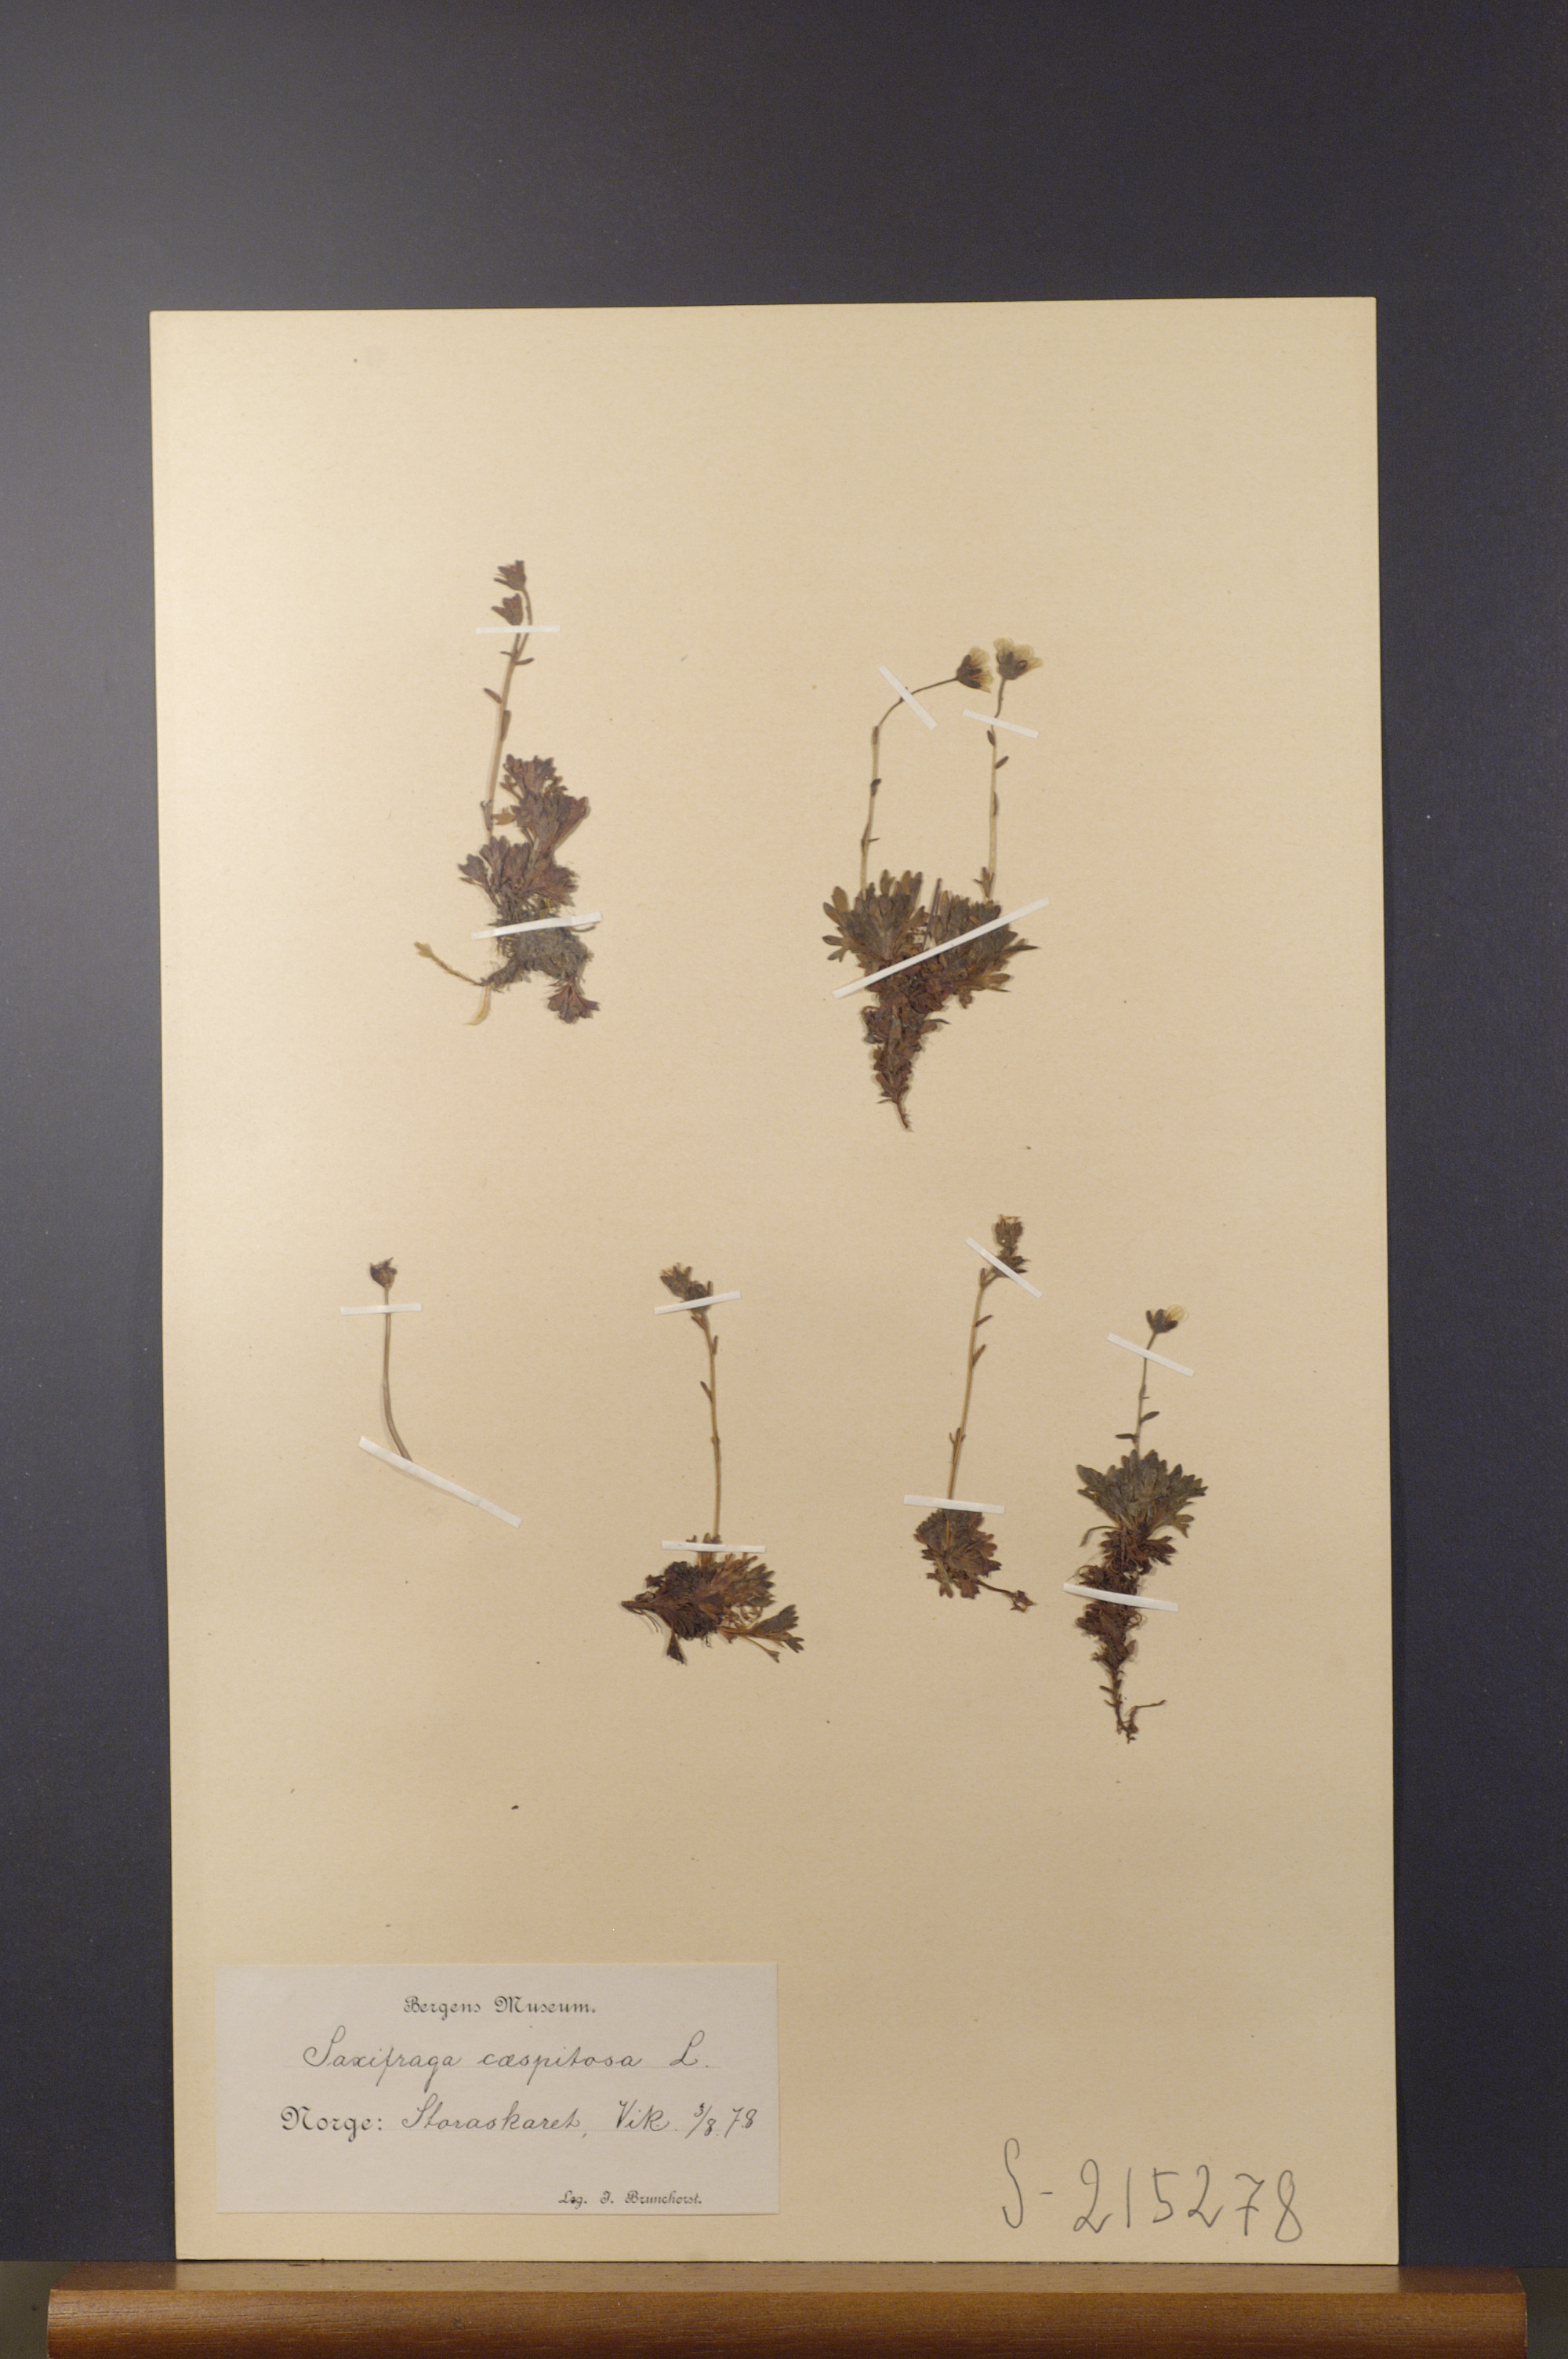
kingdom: Plantae
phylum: Tracheophyta
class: Magnoliopsida
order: Saxifragales
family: Saxifragaceae
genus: Saxifraga
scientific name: Saxifraga cespitosa
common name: Tufted saxifrage
